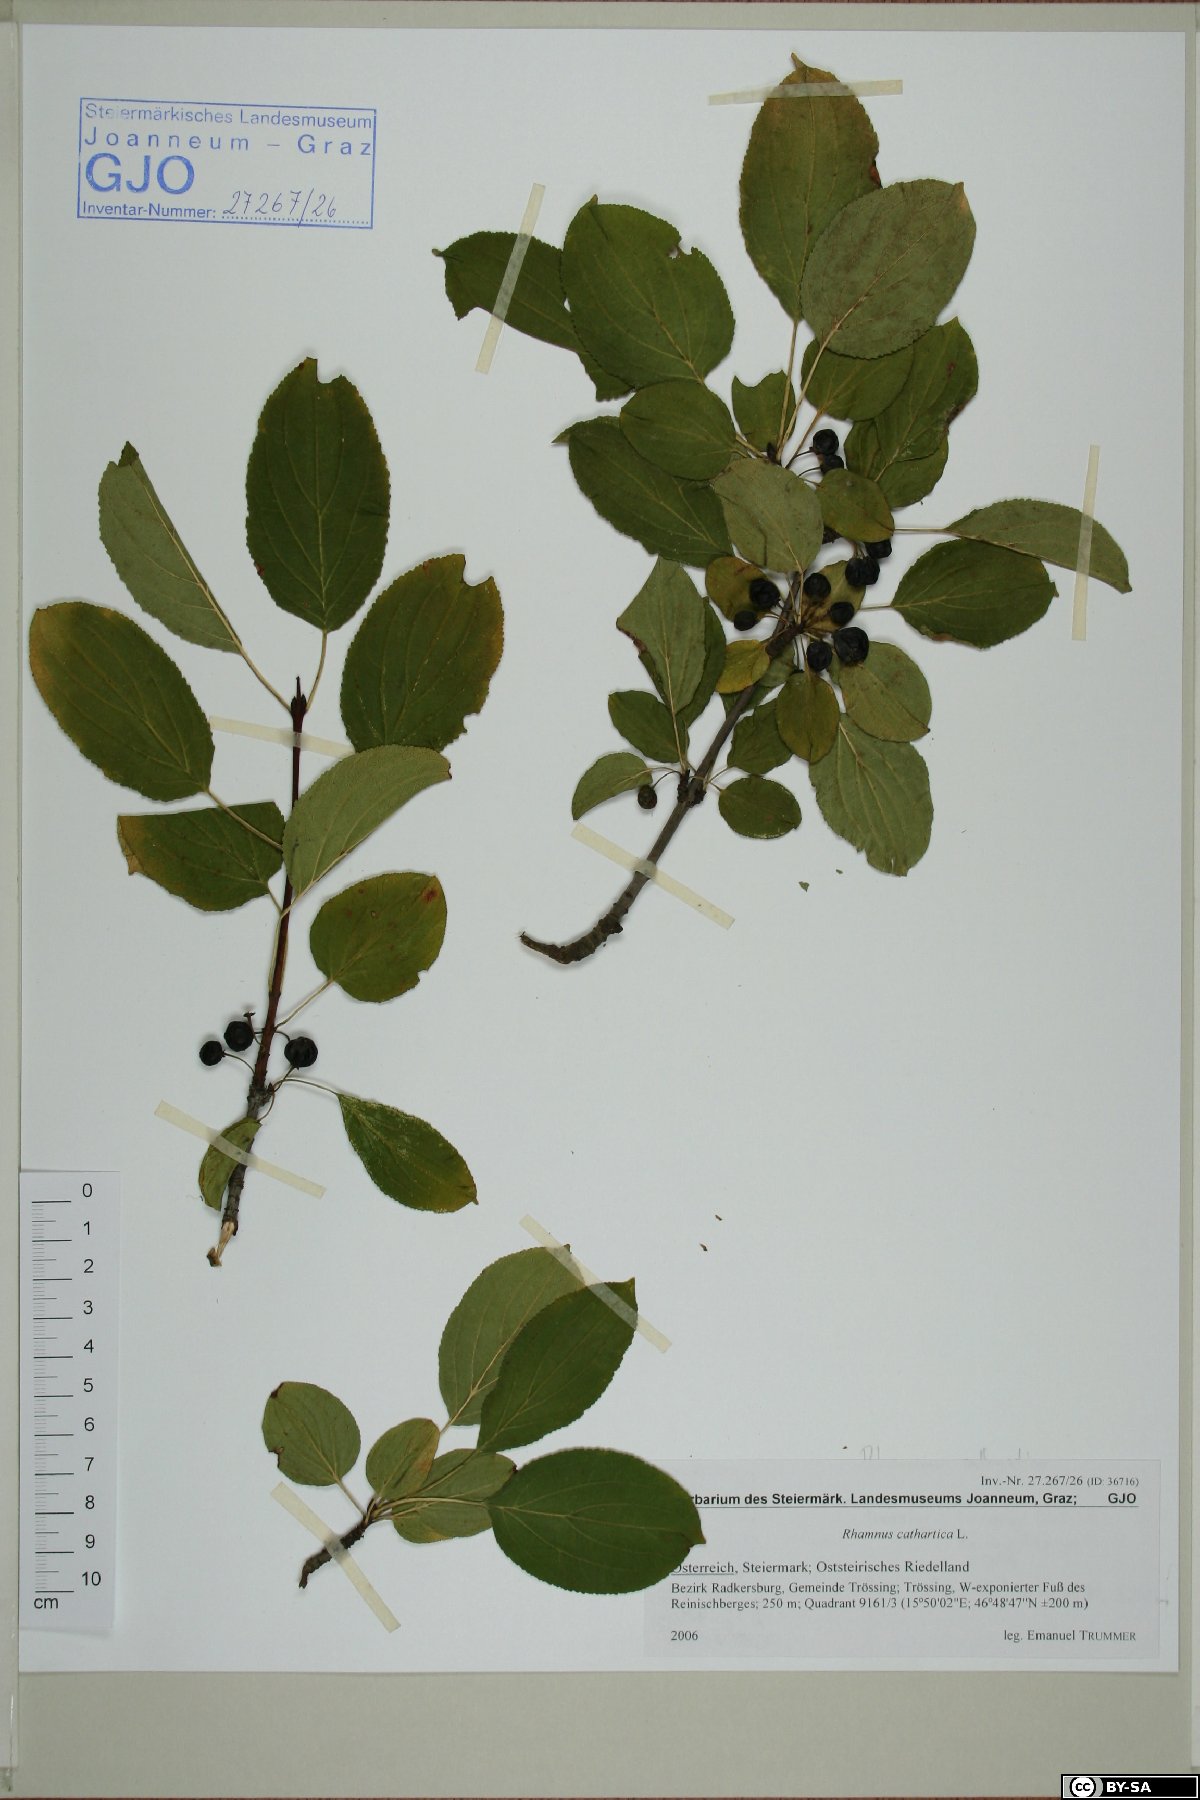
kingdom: Plantae
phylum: Tracheophyta
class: Magnoliopsida
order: Rosales
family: Rhamnaceae
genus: Rhamnus
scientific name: Rhamnus cathartica
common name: Common buckthorn
